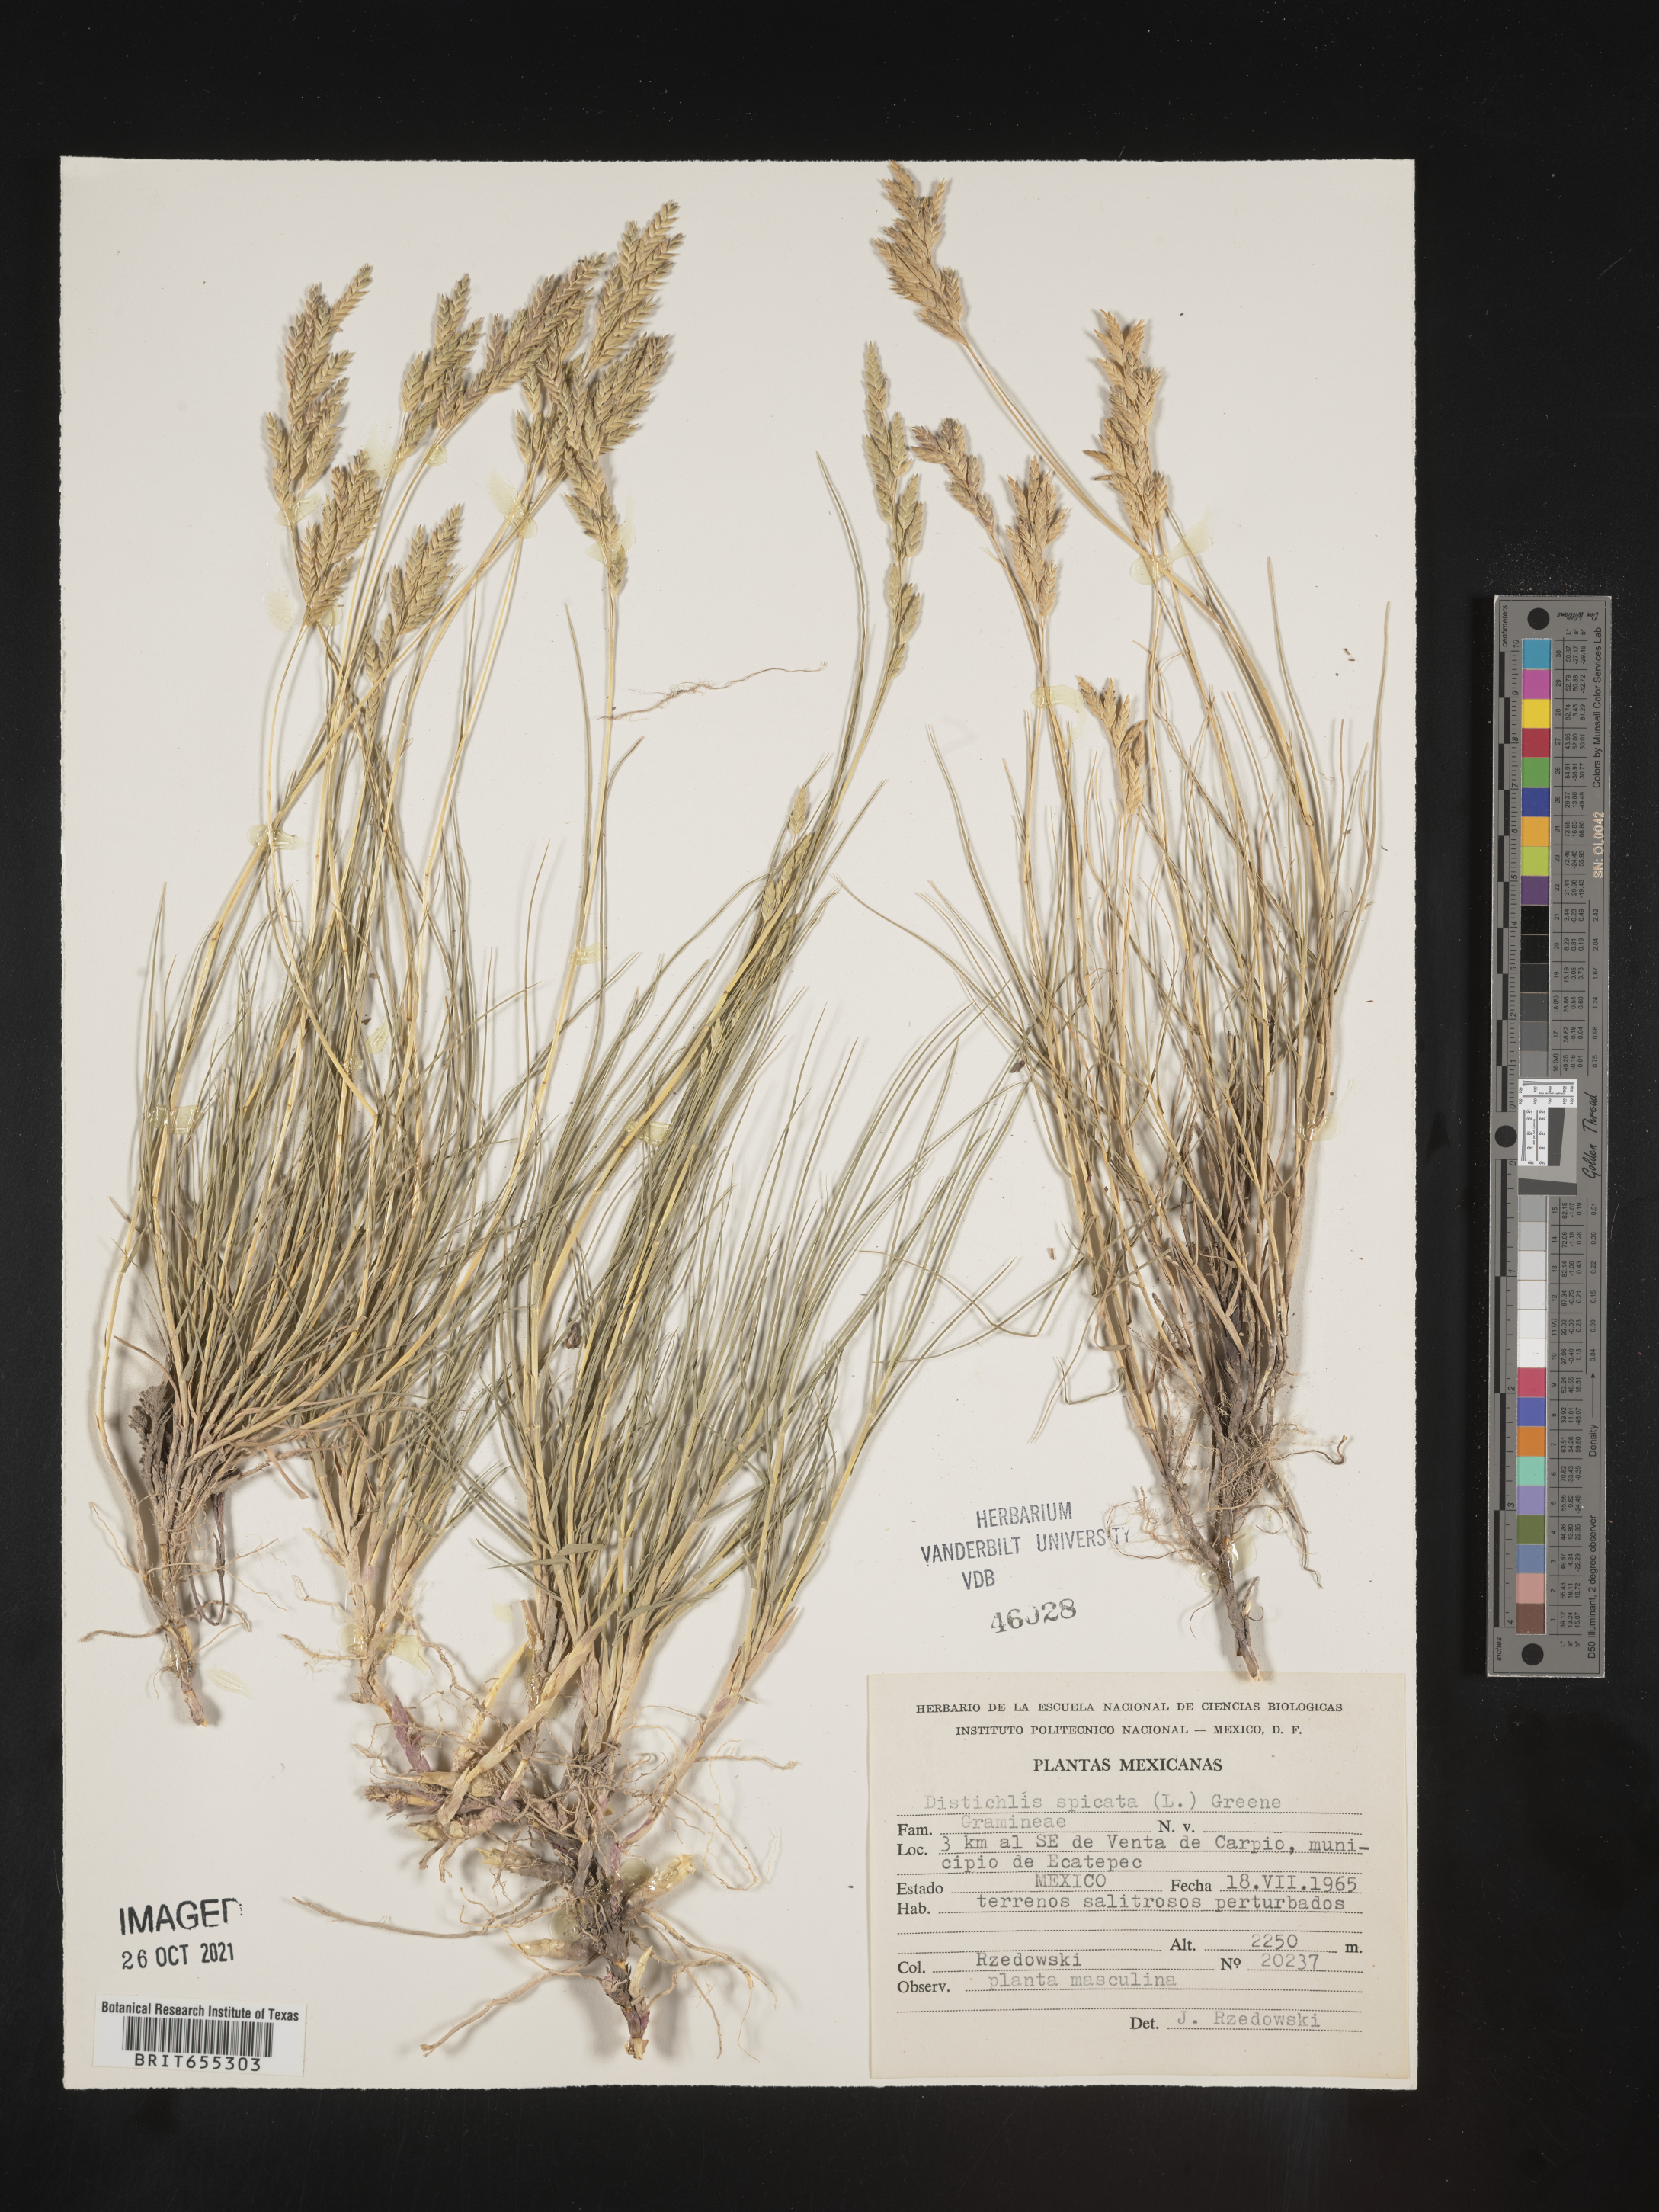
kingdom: Plantae
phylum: Tracheophyta
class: Liliopsida
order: Poales
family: Poaceae
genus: Distichlis
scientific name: Distichlis
